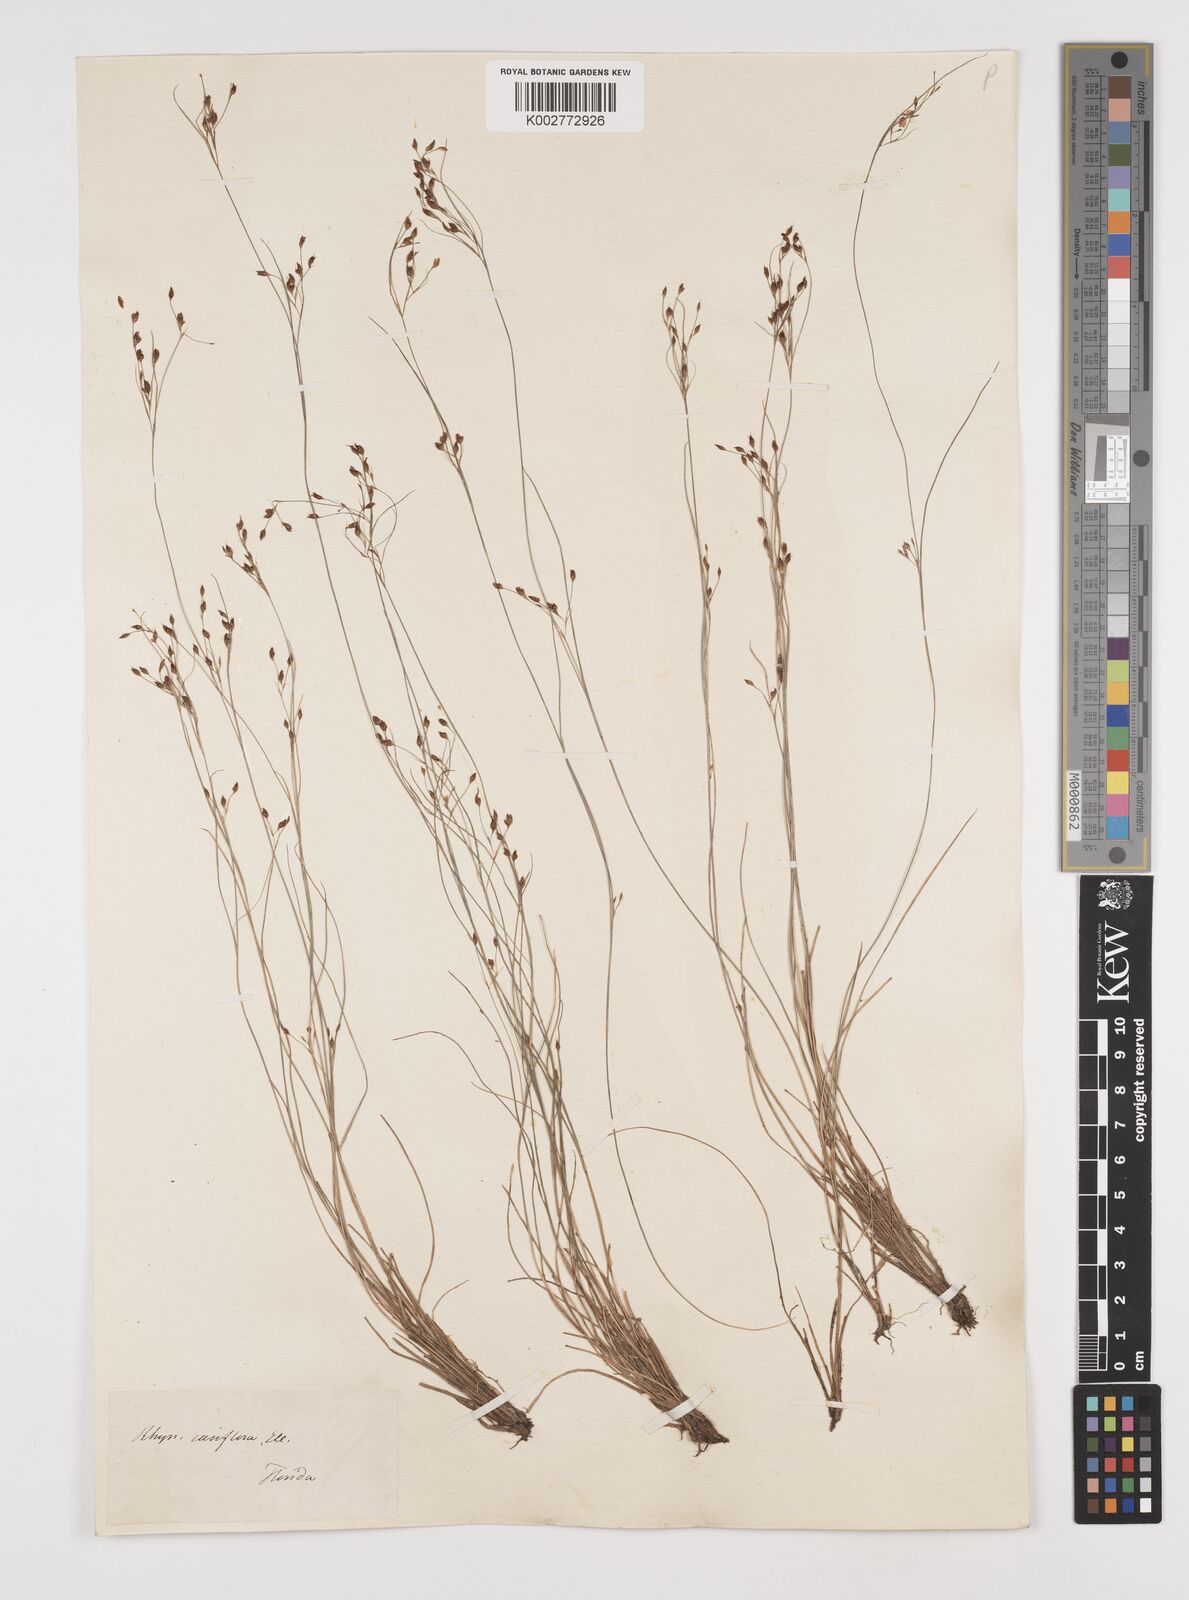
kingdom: Plantae
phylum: Tracheophyta
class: Liliopsida
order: Poales
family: Cyperaceae
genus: Rhynchospora
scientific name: Rhynchospora rariflora
